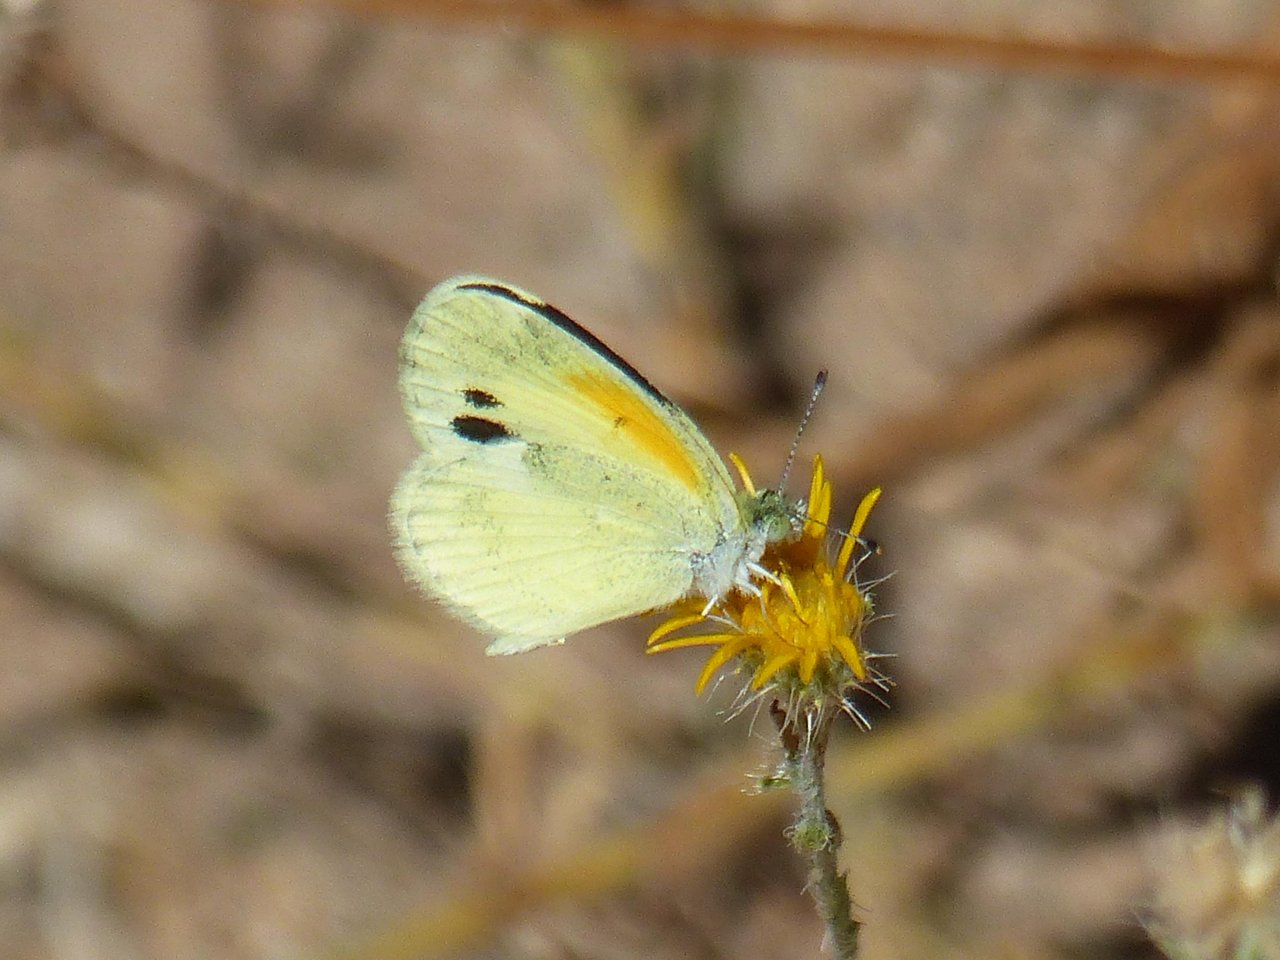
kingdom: Animalia
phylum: Arthropoda
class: Insecta
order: Lepidoptera
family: Pieridae
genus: Nathalis
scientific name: Nathalis iole
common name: Dainty Sulphur
